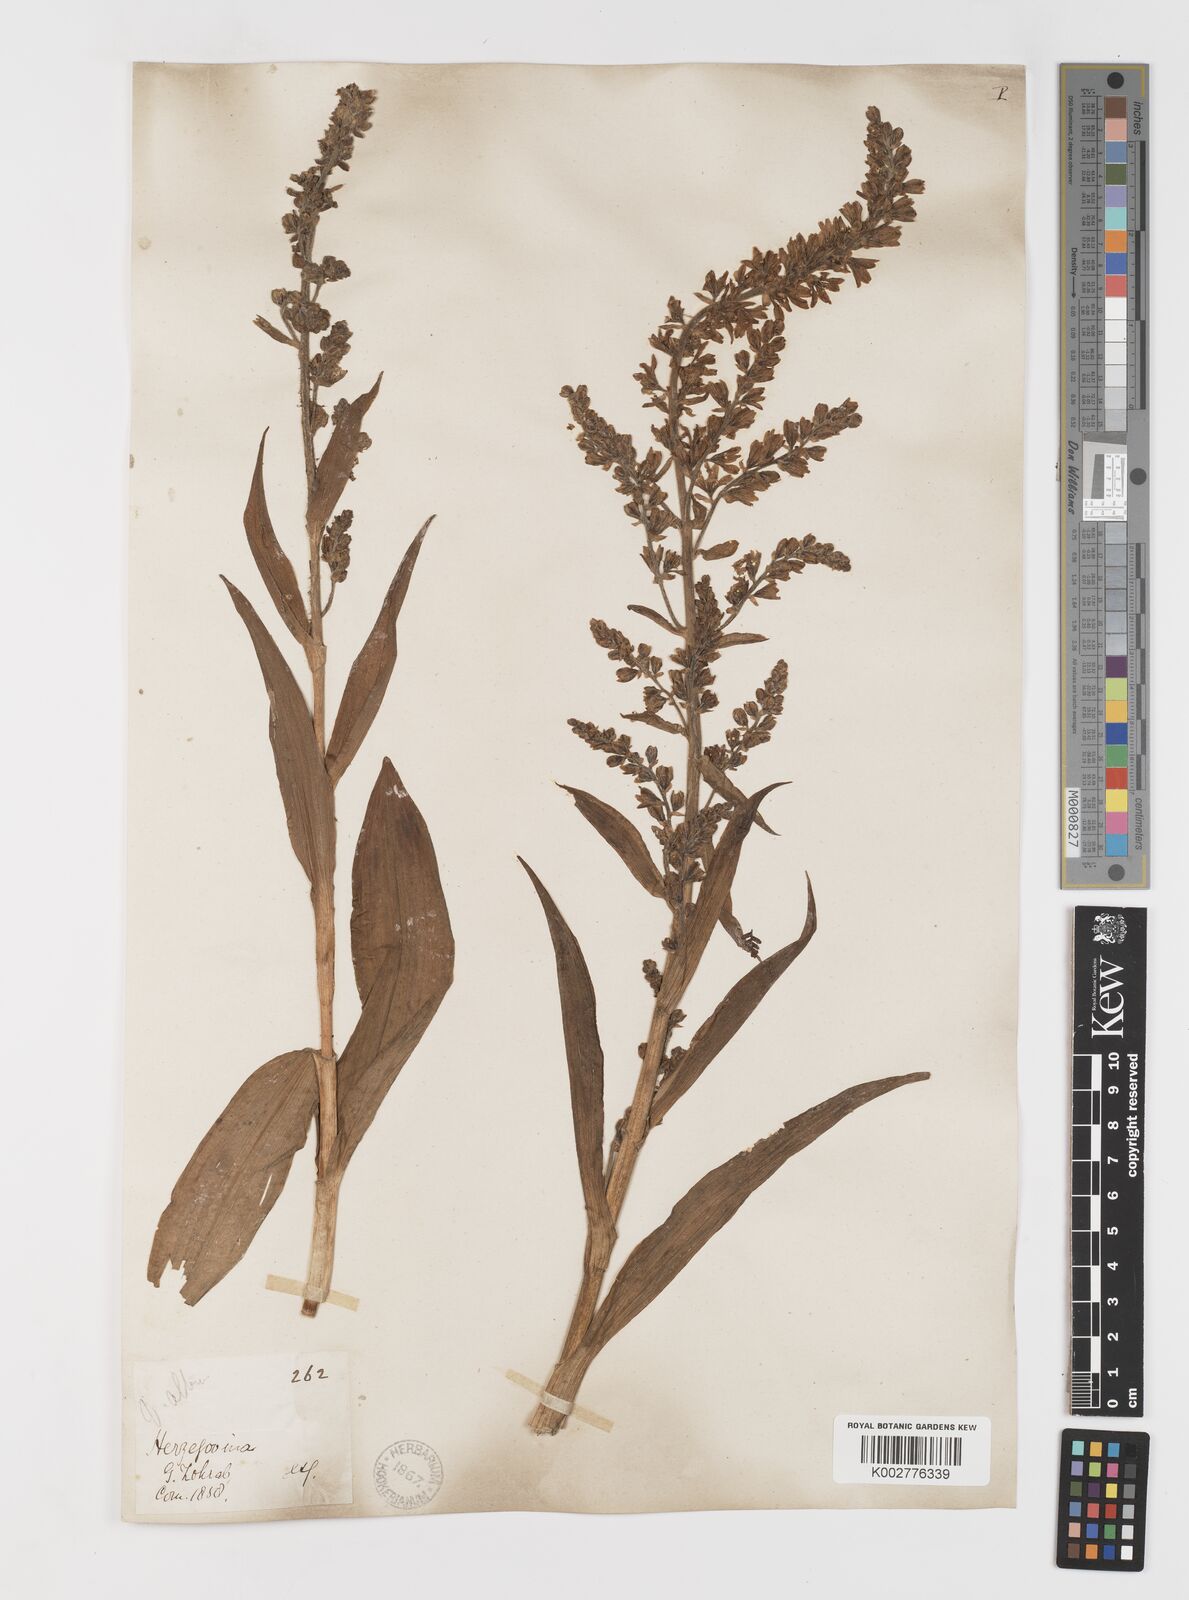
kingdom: Plantae
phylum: Tracheophyta
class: Liliopsida
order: Liliales
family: Melanthiaceae
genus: Veratrum
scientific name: Veratrum album
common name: White veratrum
